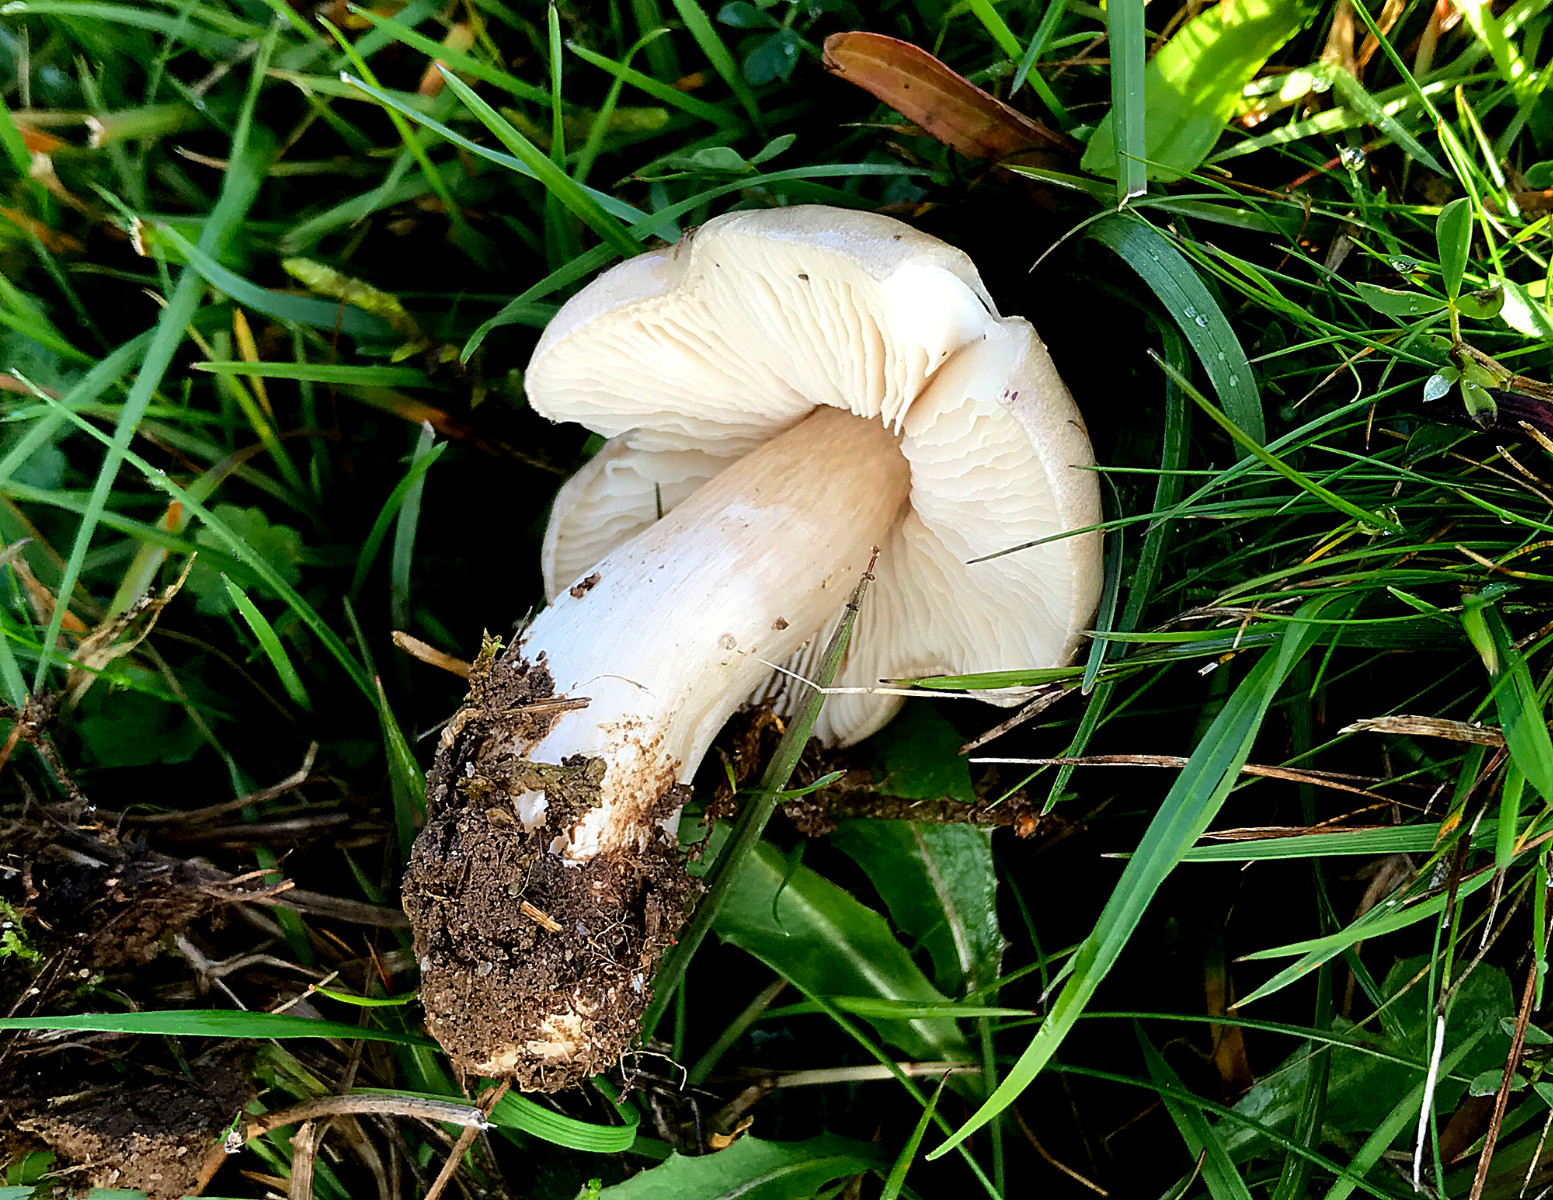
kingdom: Fungi
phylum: Basidiomycota
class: Agaricomycetes
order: Agaricales
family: Entolomataceae
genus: Entoloma
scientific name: Entoloma prunuloides
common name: mel-rødblad
